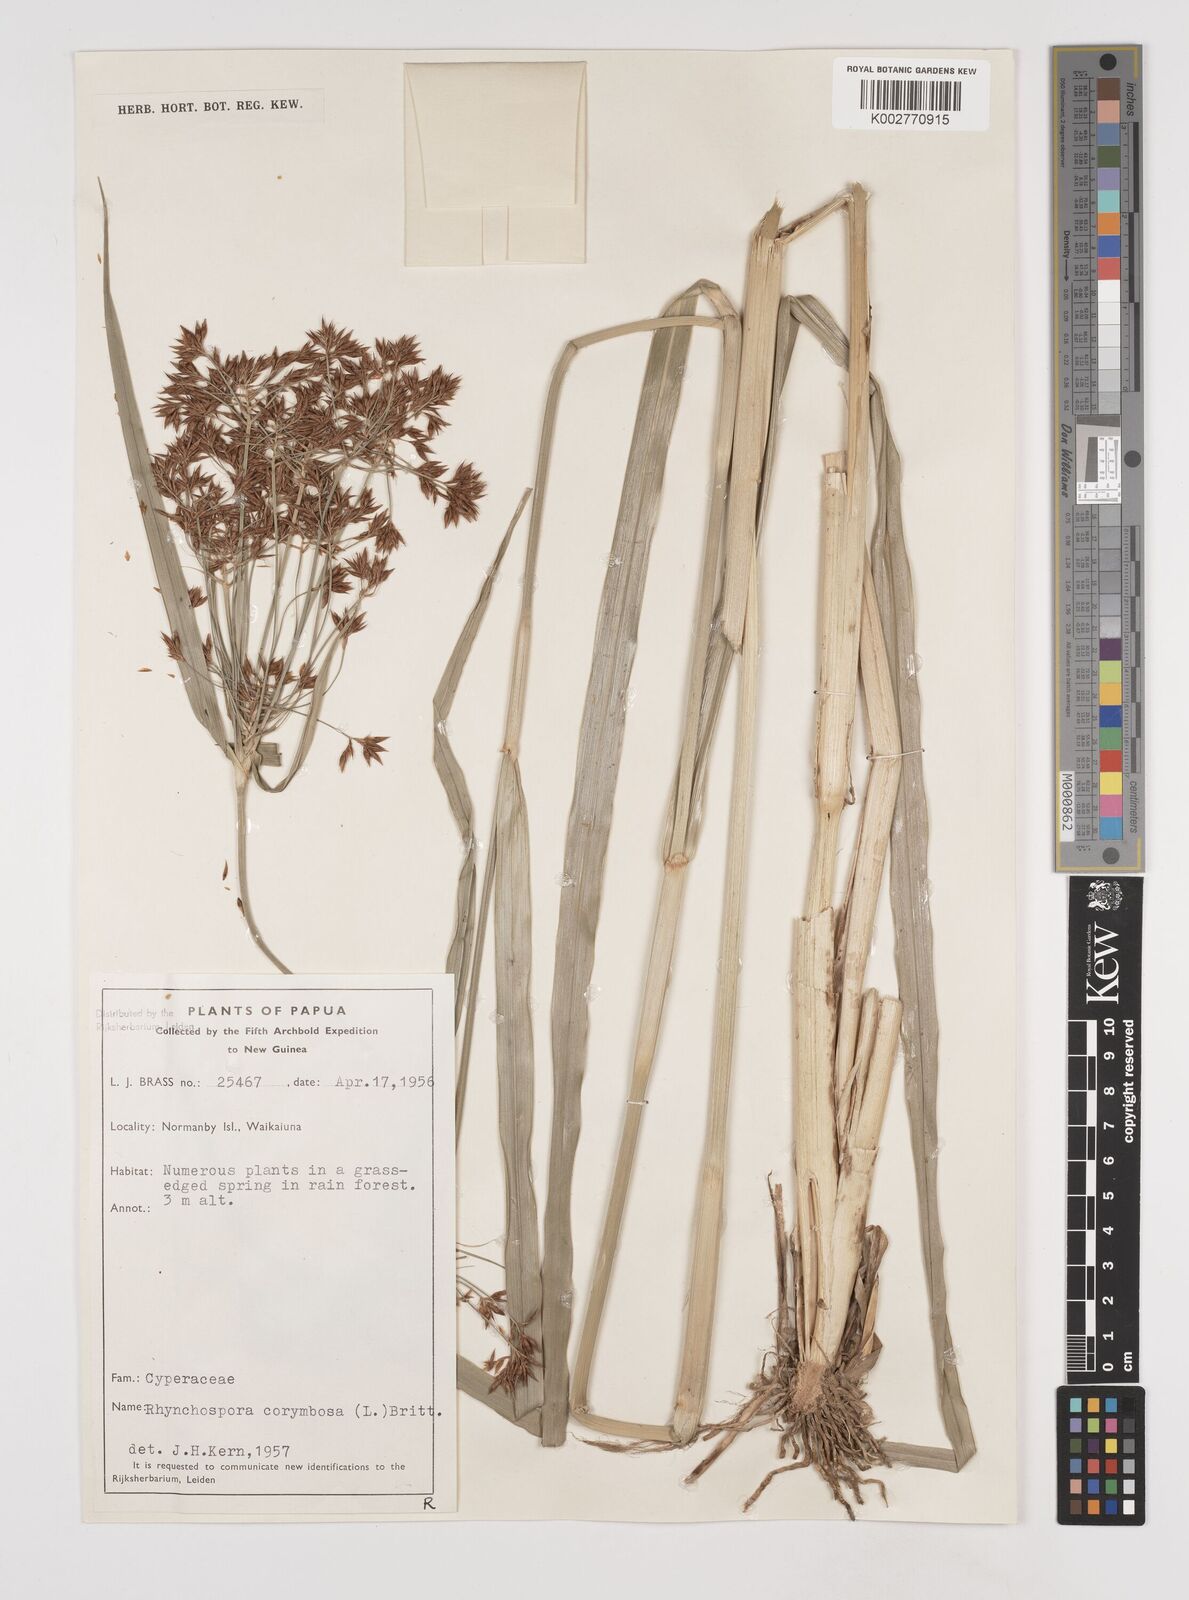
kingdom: Plantae
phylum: Tracheophyta
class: Liliopsida
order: Poales
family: Cyperaceae
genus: Rhynchospora
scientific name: Rhynchospora corymbosa
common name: Golden beak sedge
